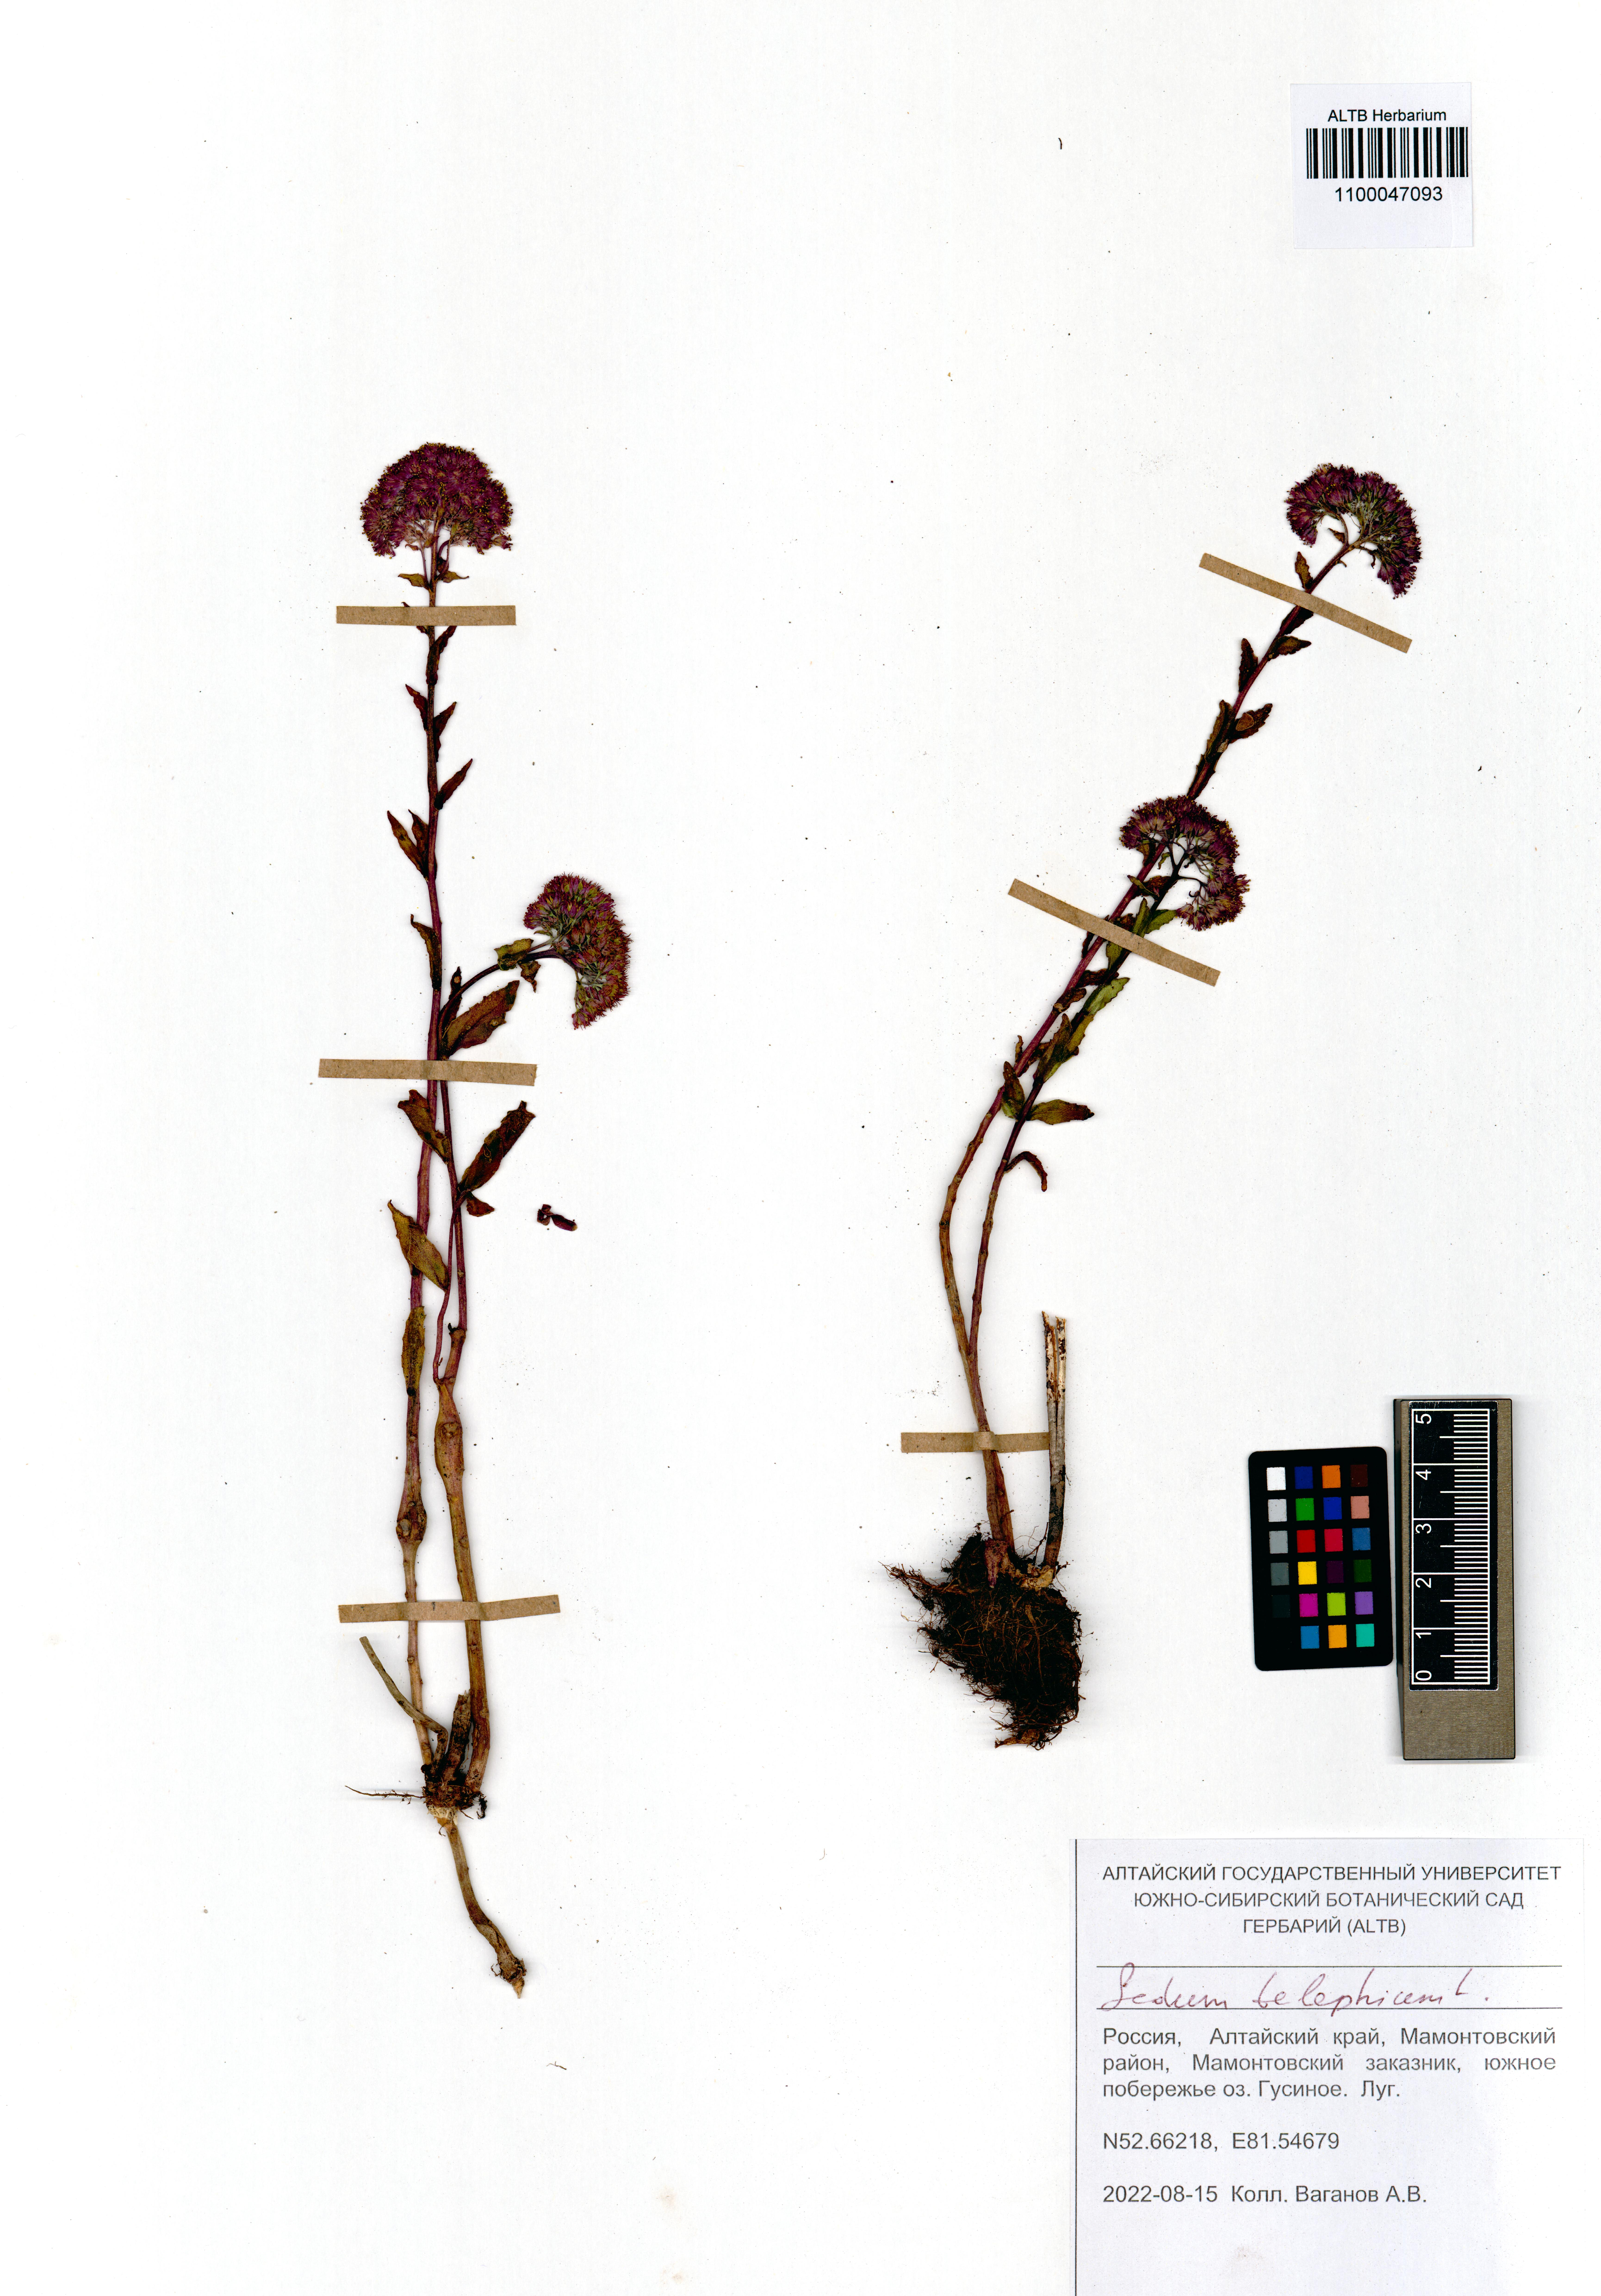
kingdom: Plantae
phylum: Tracheophyta
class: Magnoliopsida
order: Saxifragales
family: Crassulaceae
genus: Hylotelephium
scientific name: Hylotelephium telephium
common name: Live-forever
